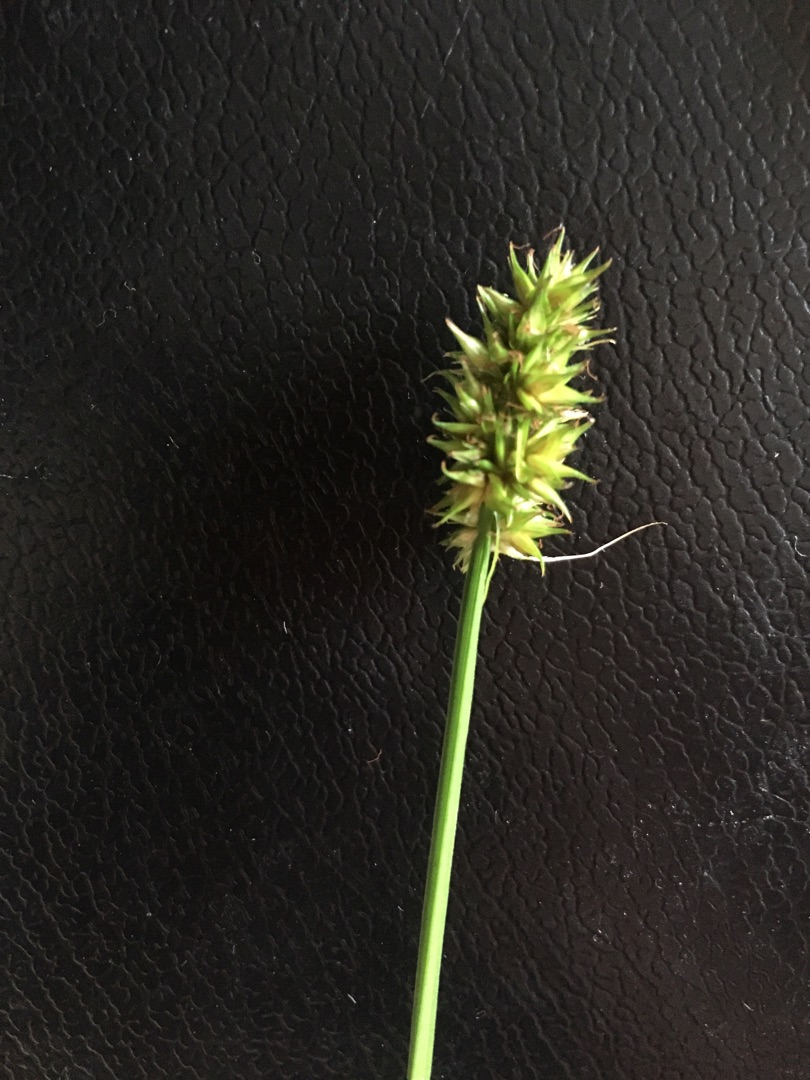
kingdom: Plantae
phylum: Tracheophyta
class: Liliopsida
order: Poales
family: Cyperaceae
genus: Carex
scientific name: Carex otrubae
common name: Sylt-star
